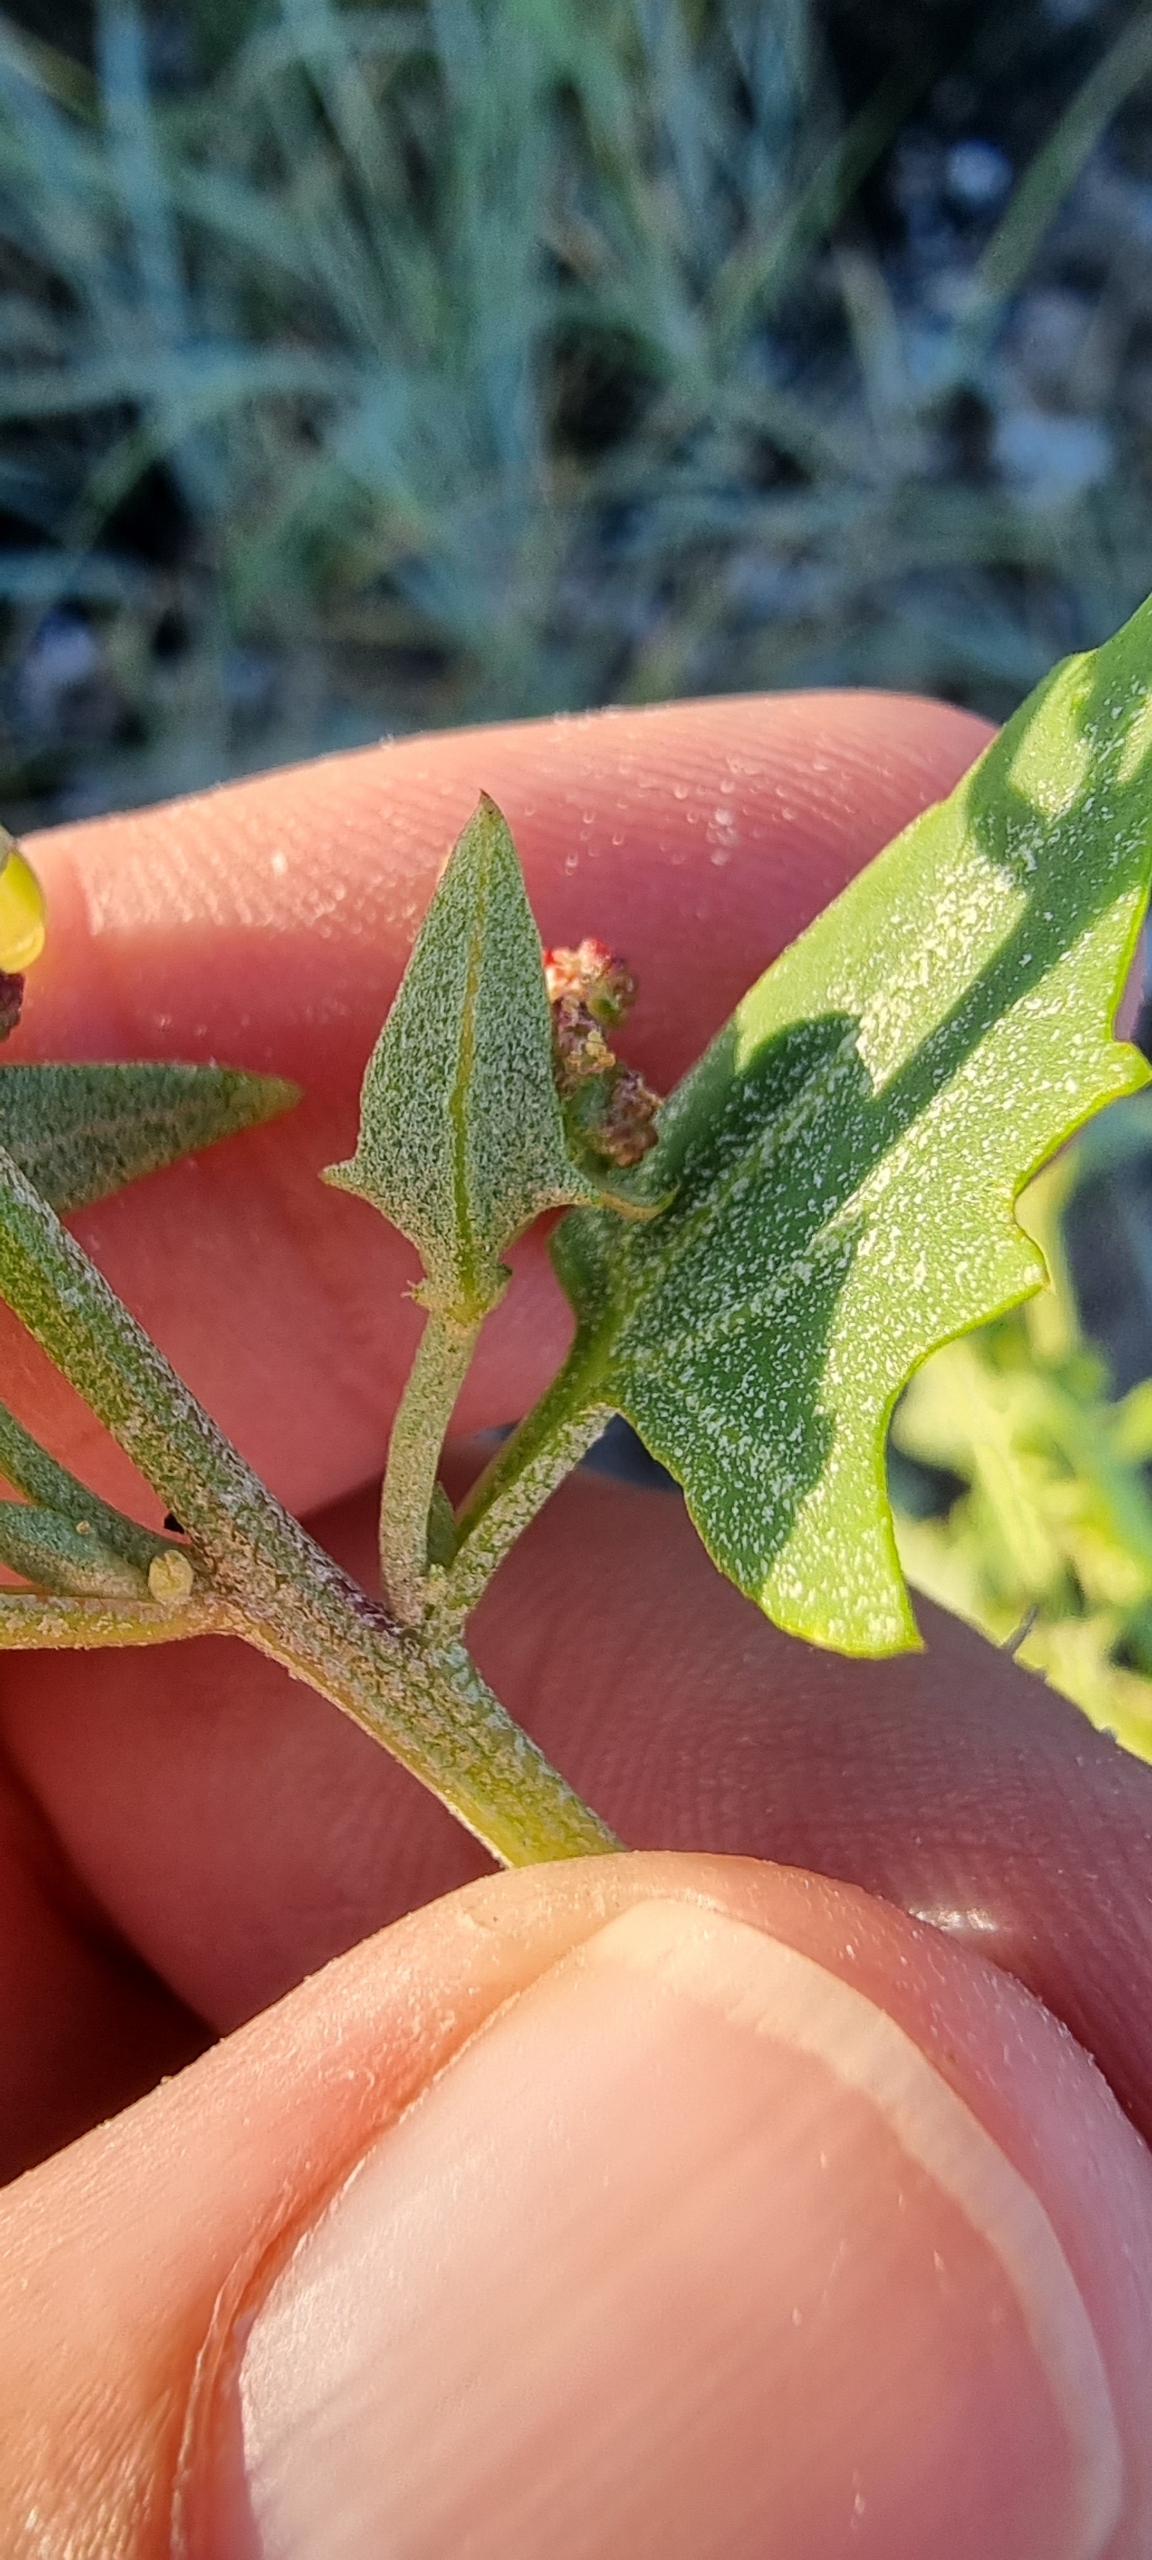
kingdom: Plantae
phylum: Tracheophyta
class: Magnoliopsida
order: Caryophyllales
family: Amaranthaceae
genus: Atriplex
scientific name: Atriplex prostrata
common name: Spyd-mælde
